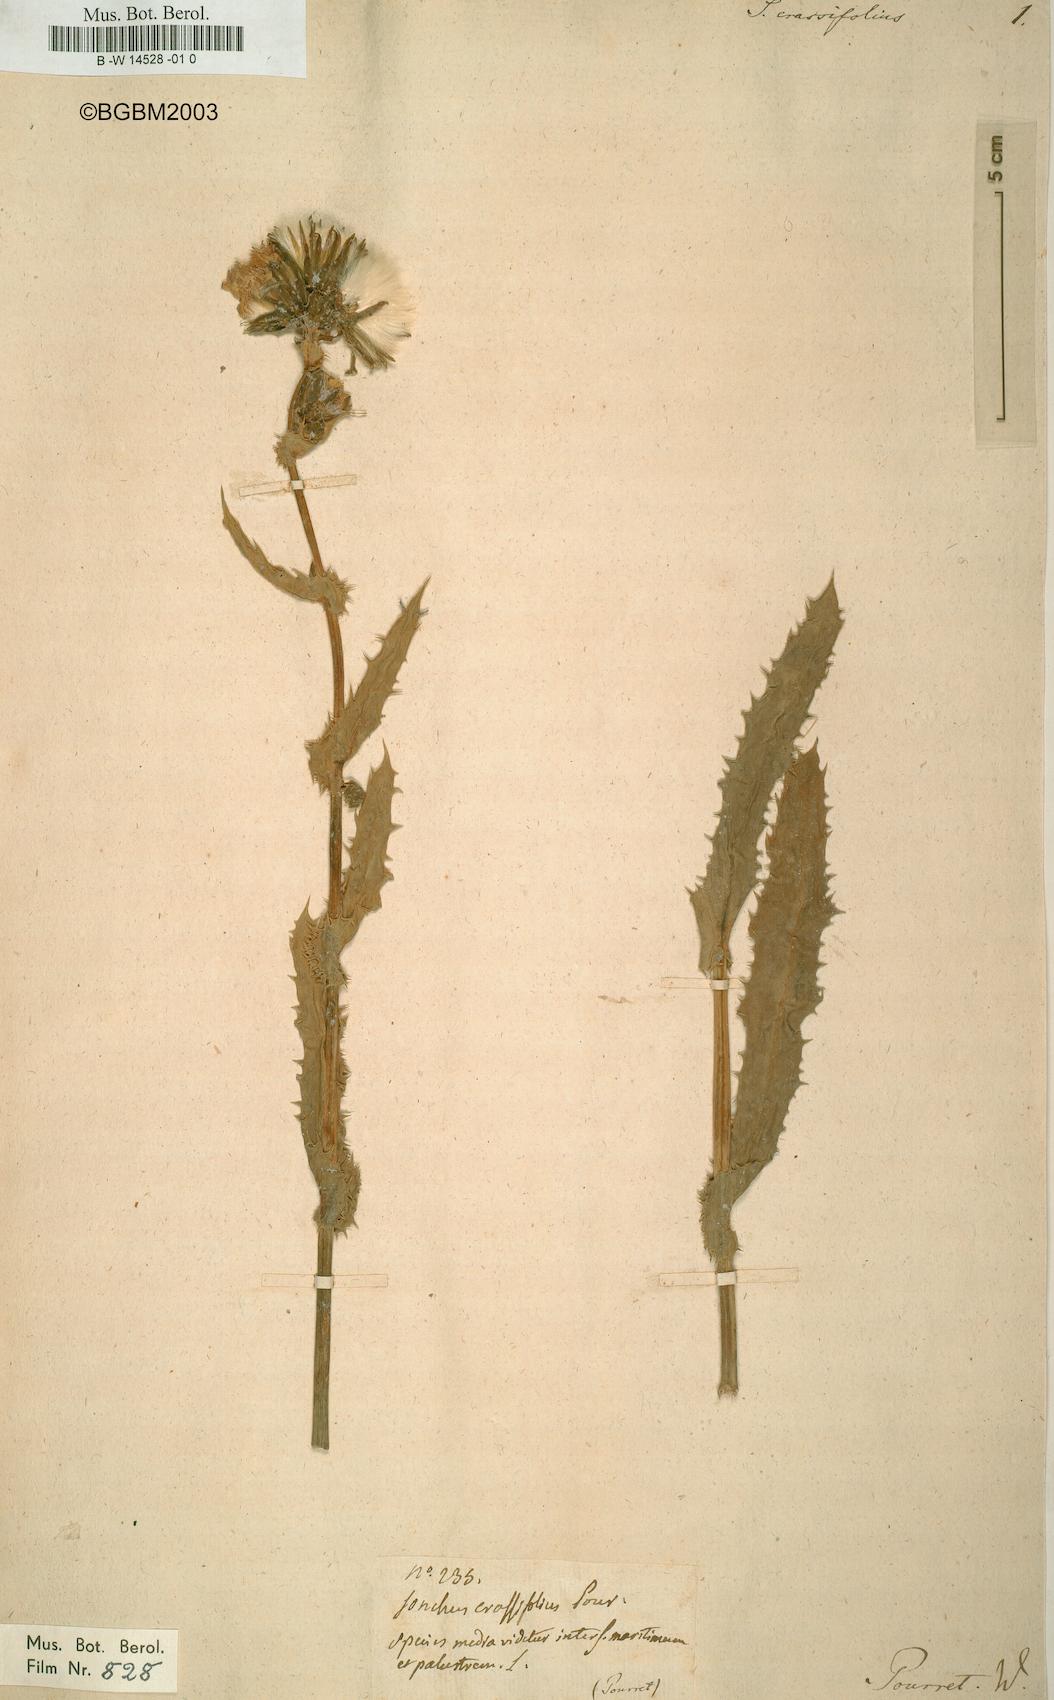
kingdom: Plantae
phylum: Tracheophyta
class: Magnoliopsida
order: Asterales
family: Asteraceae
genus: Sonchus
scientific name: Sonchus crassifolius
